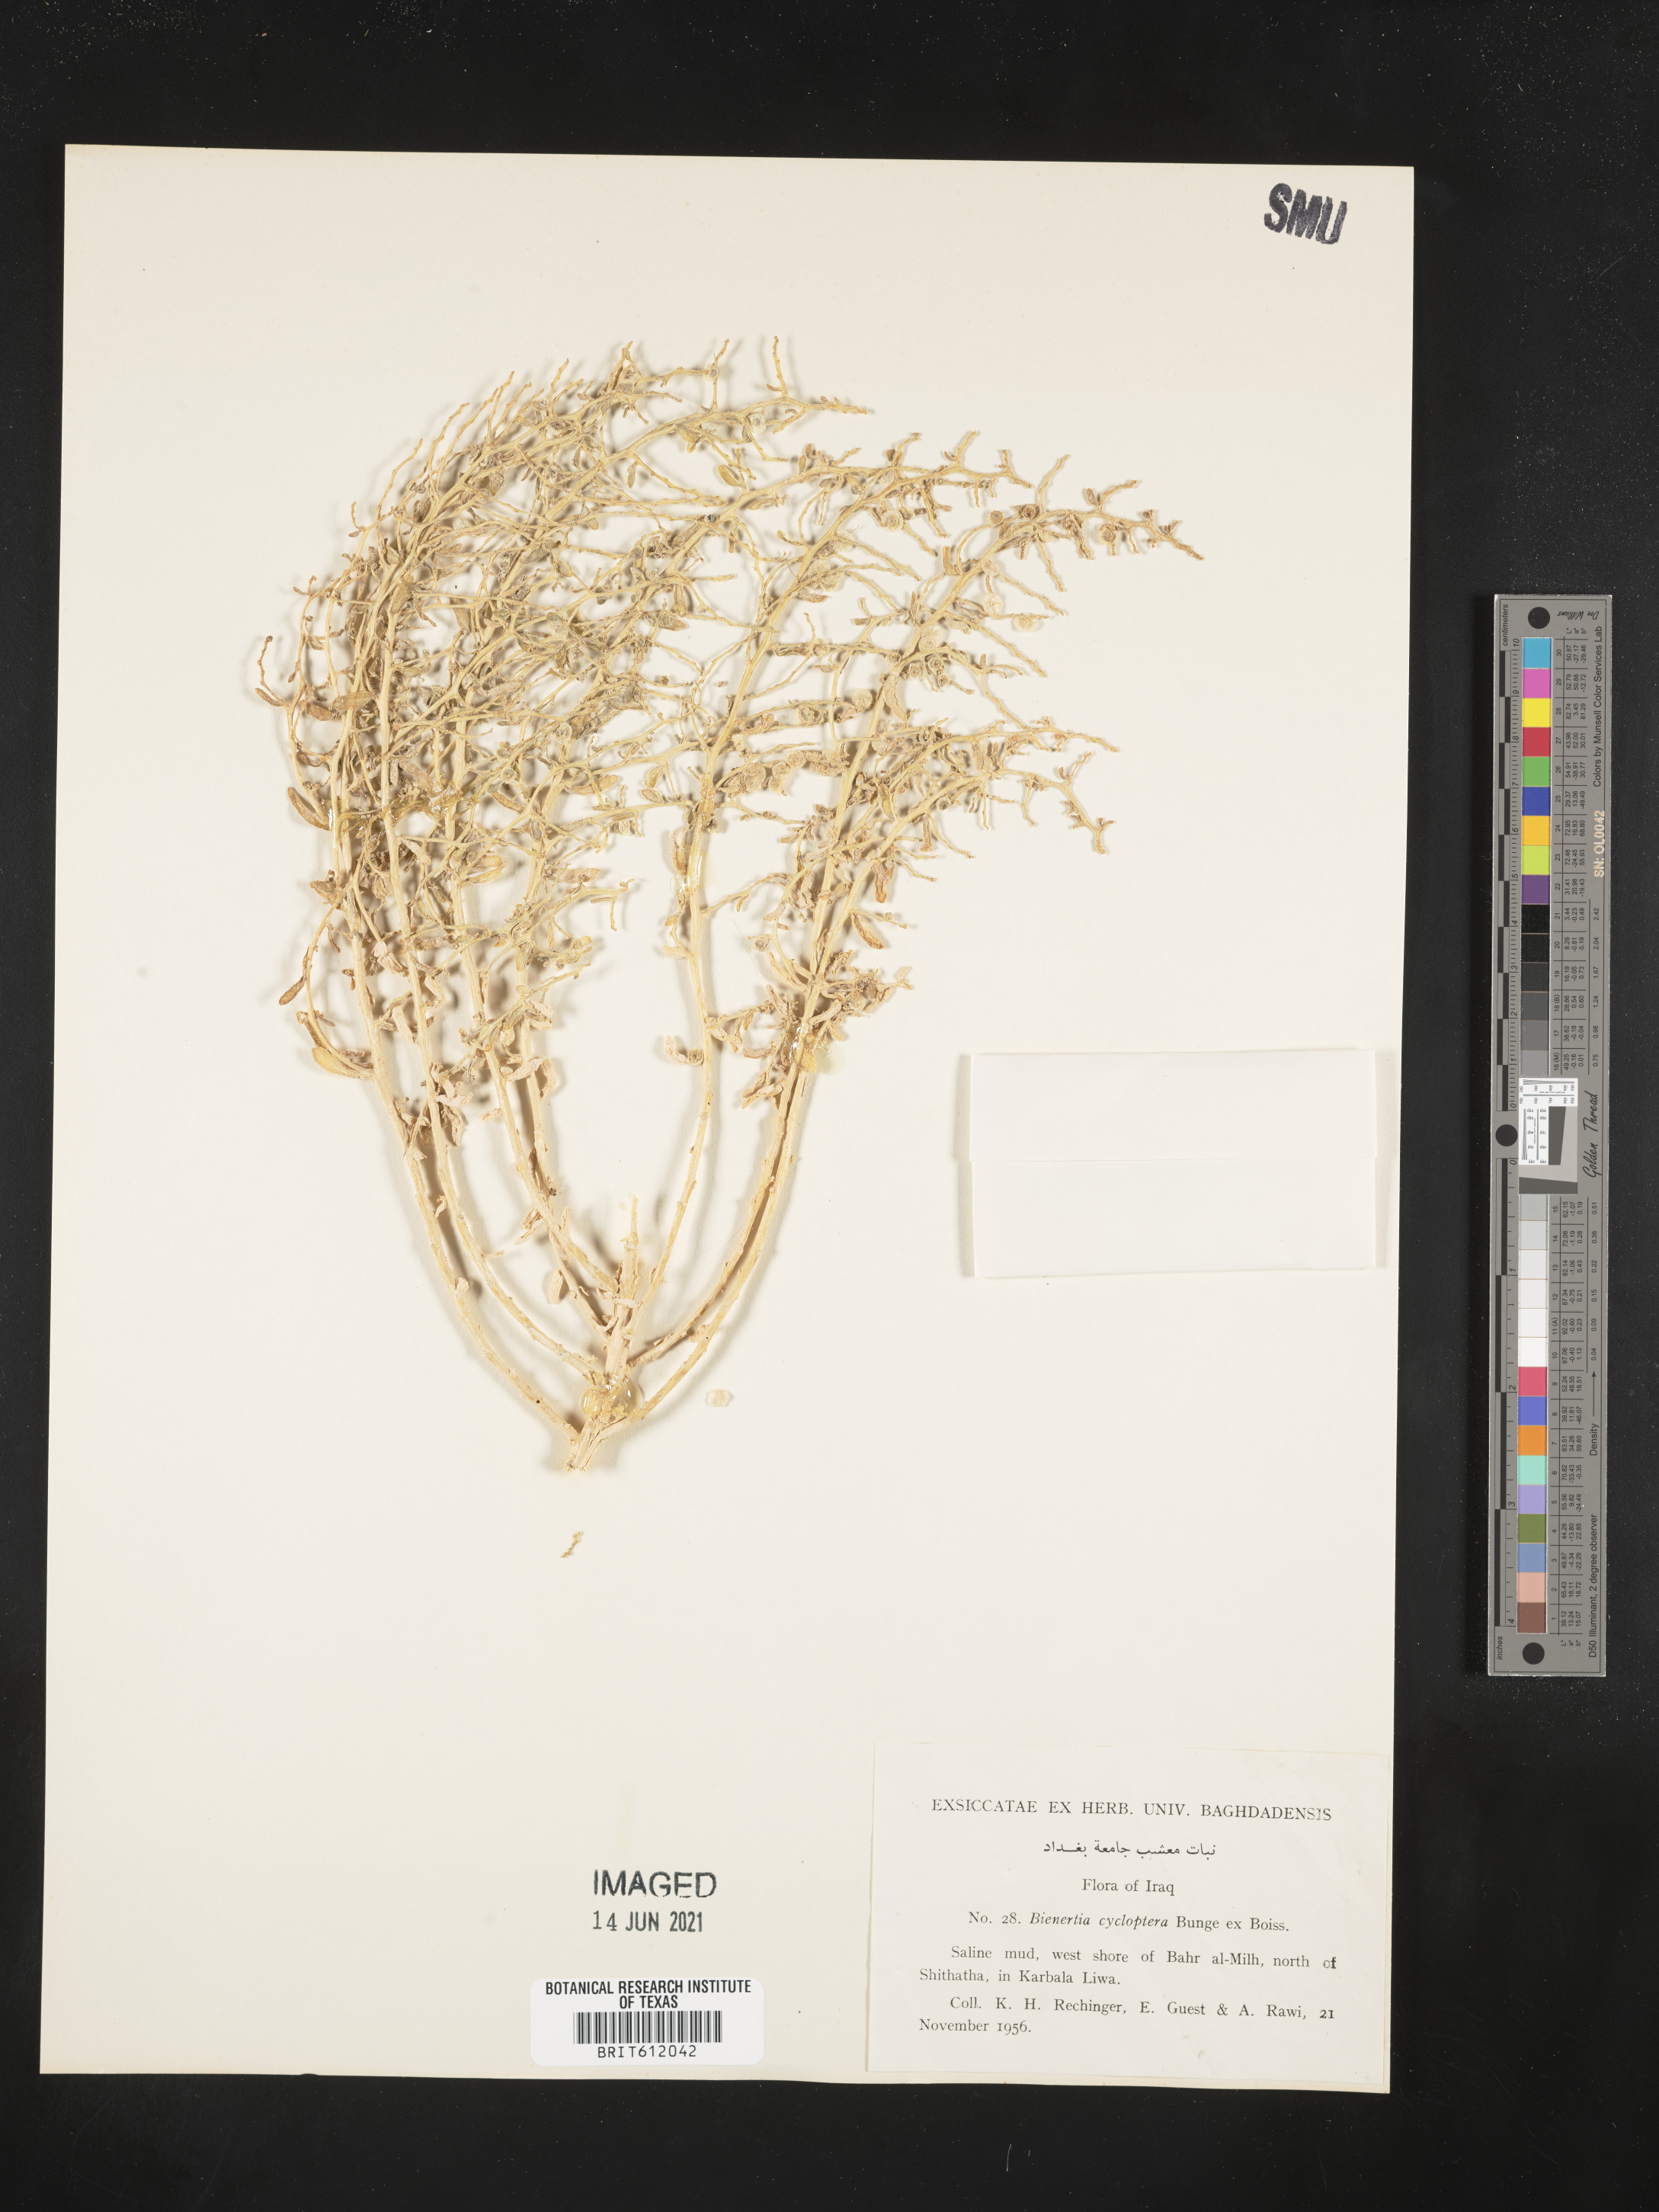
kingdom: Plantae
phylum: Tracheophyta
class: Magnoliopsida
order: Caryophyllales
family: Amaranthaceae
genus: Bienertia
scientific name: Bienertia cycloptera
